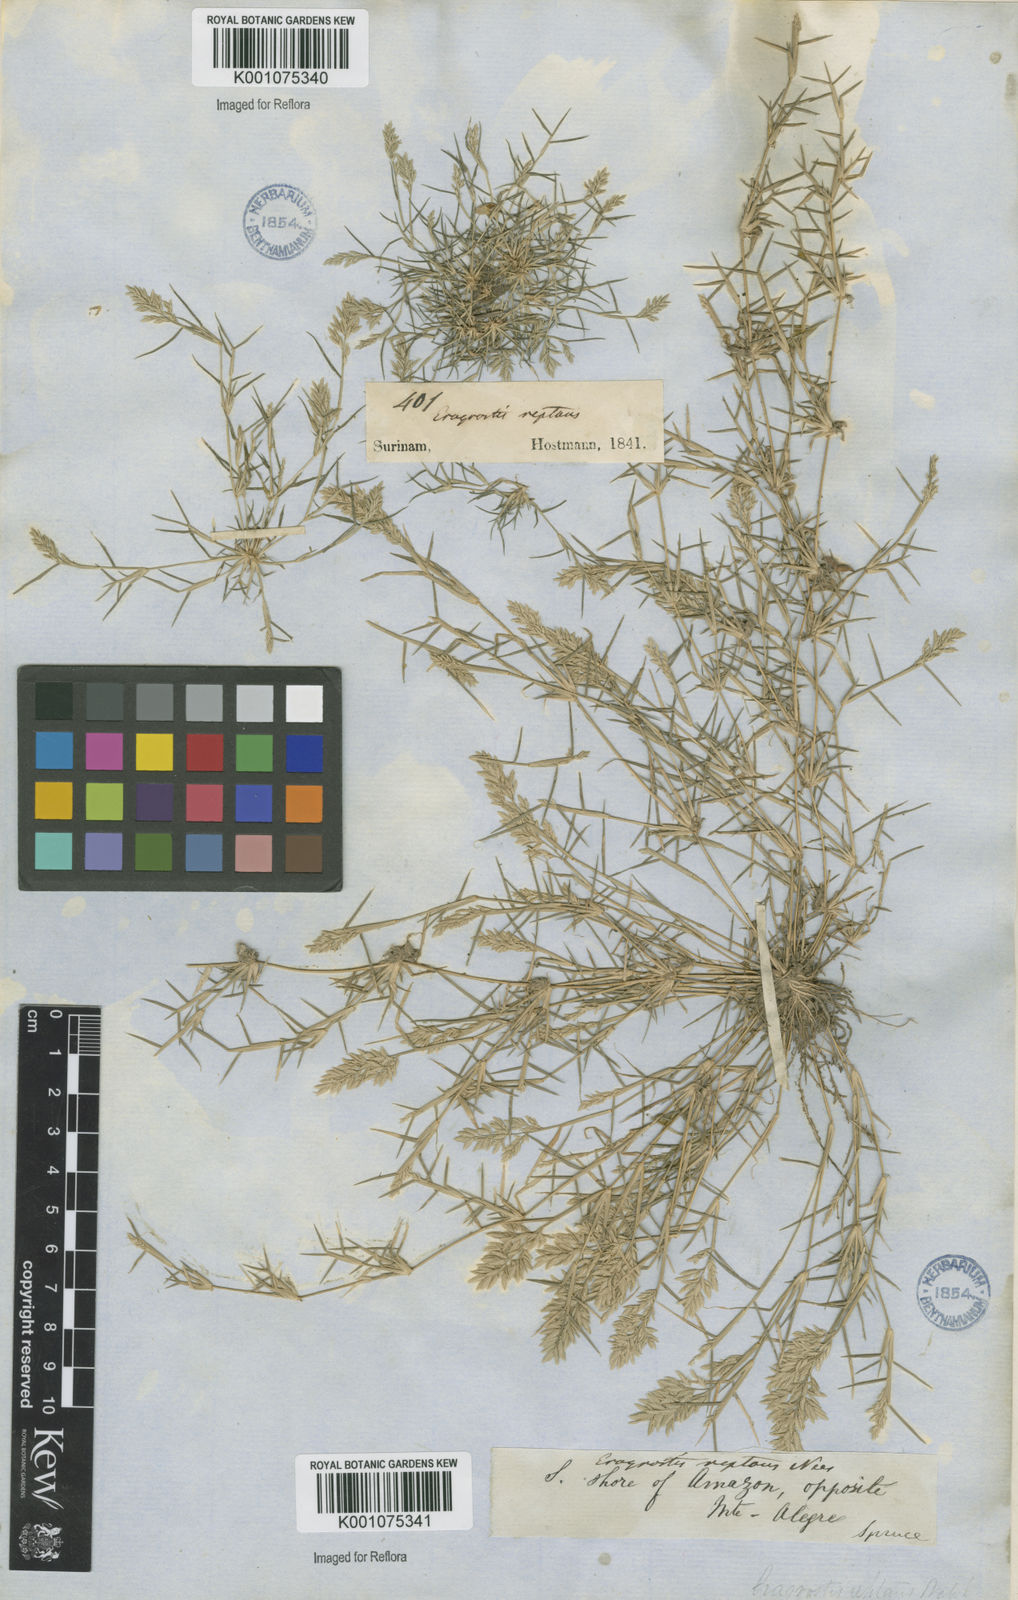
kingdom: Plantae
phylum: Tracheophyta
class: Liliopsida
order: Poales
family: Poaceae
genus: Eragrostis
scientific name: Eragrostis
